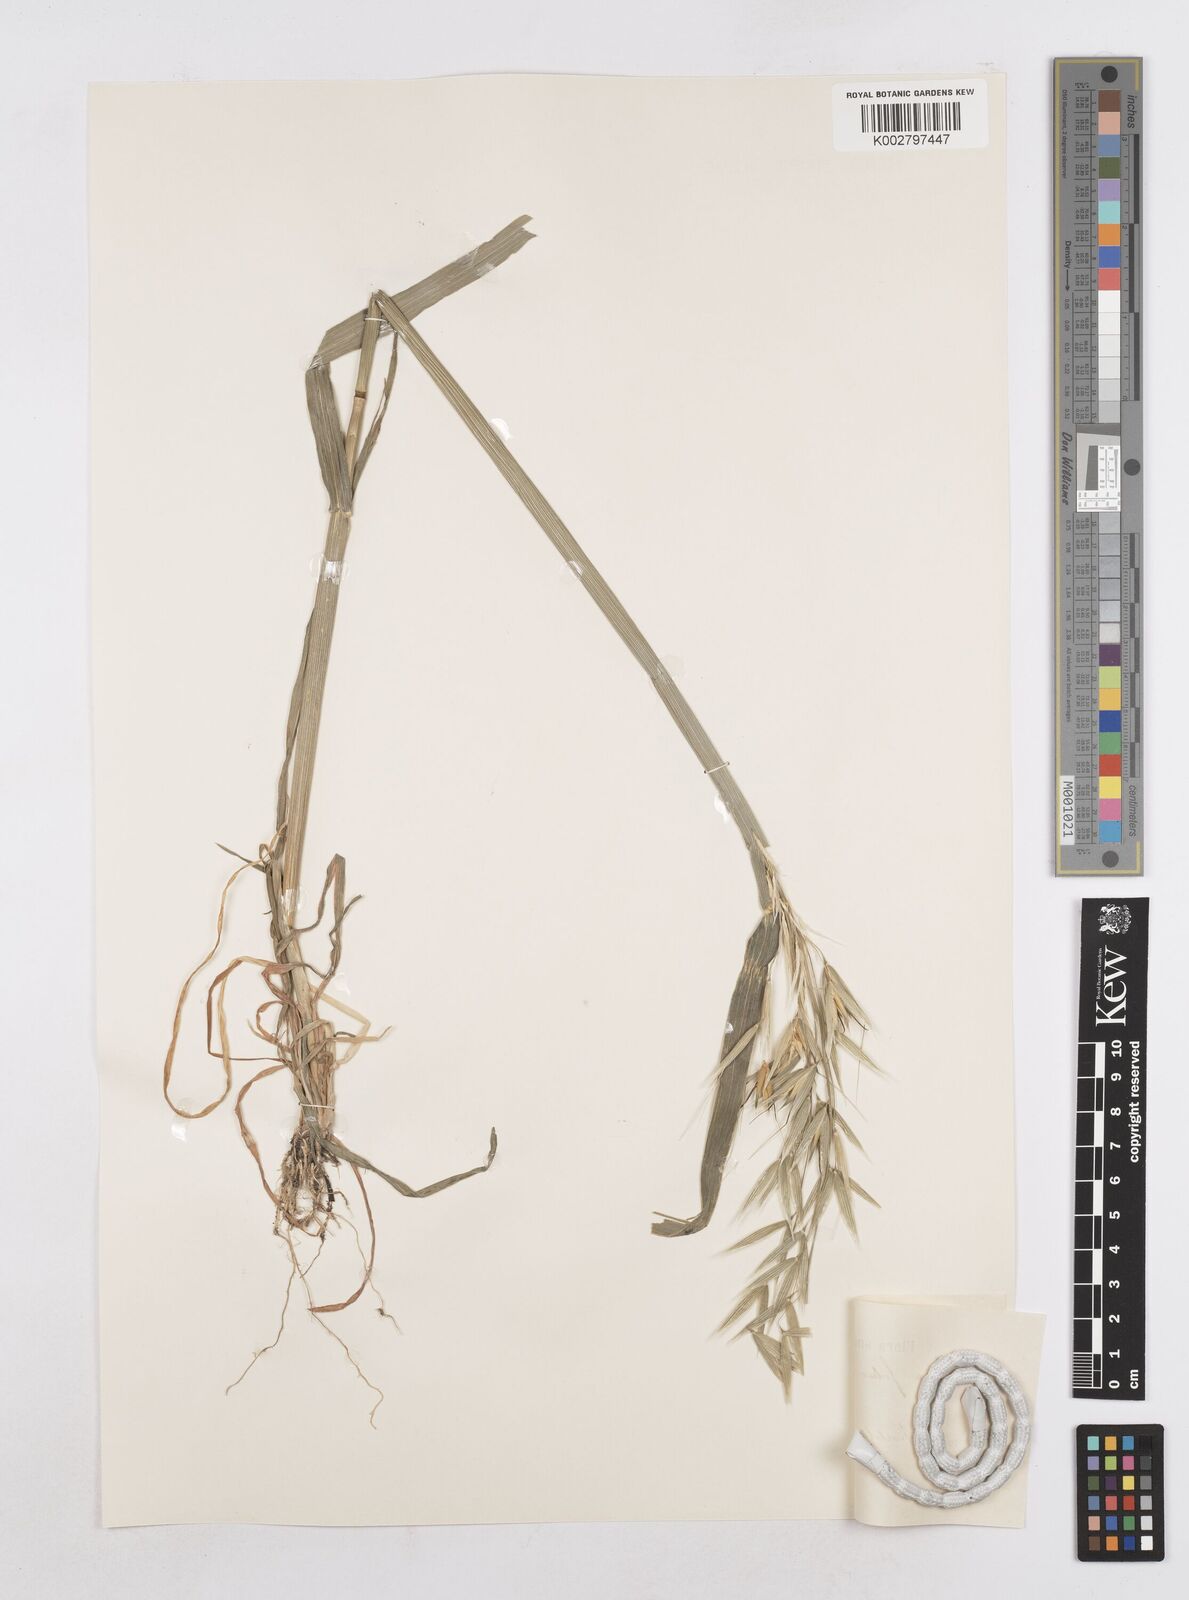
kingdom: Plantae
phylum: Tracheophyta
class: Liliopsida
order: Poales
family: Poaceae
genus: Avena
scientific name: Avena fatua
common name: Wild oat
